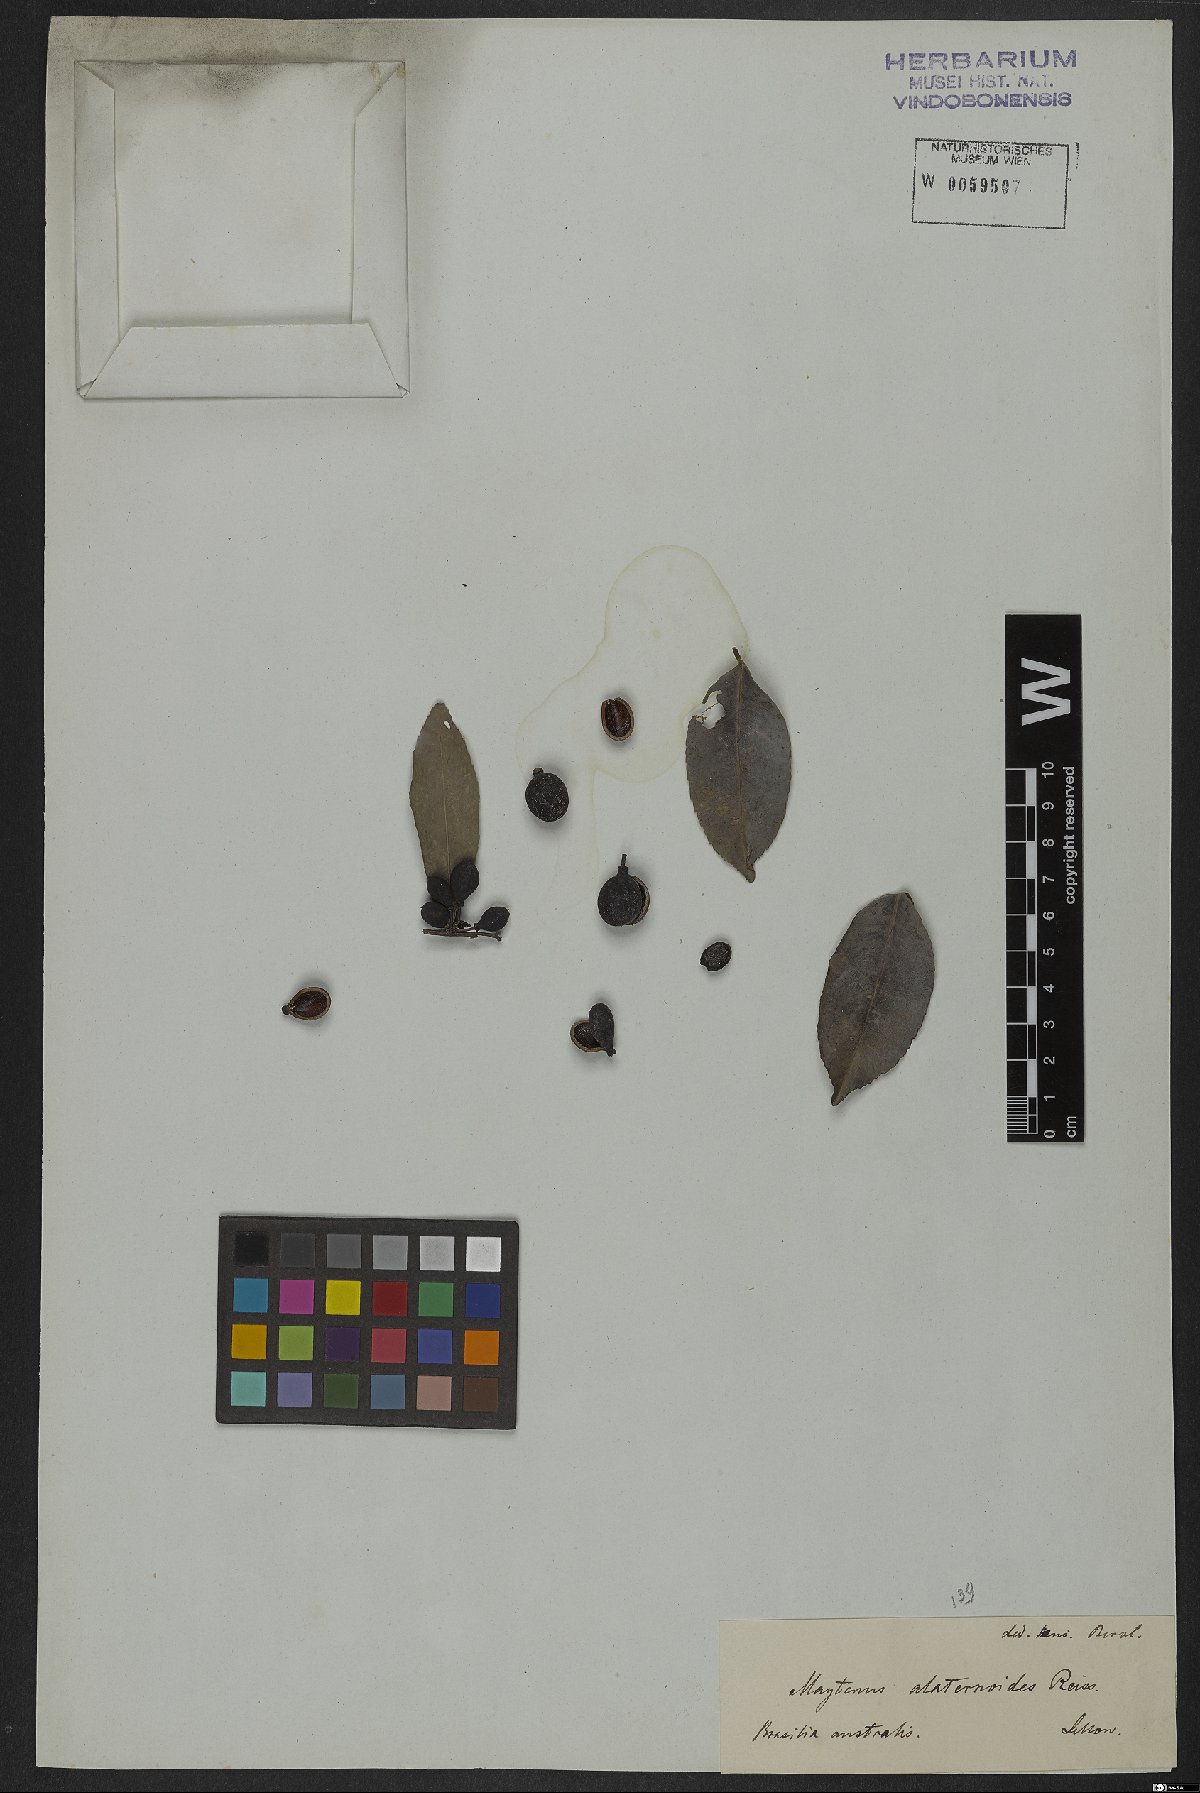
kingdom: Plantae
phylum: Tracheophyta
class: Magnoliopsida
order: Celastrales
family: Celastraceae
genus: Maytenus
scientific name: Maytenus alaternoides
